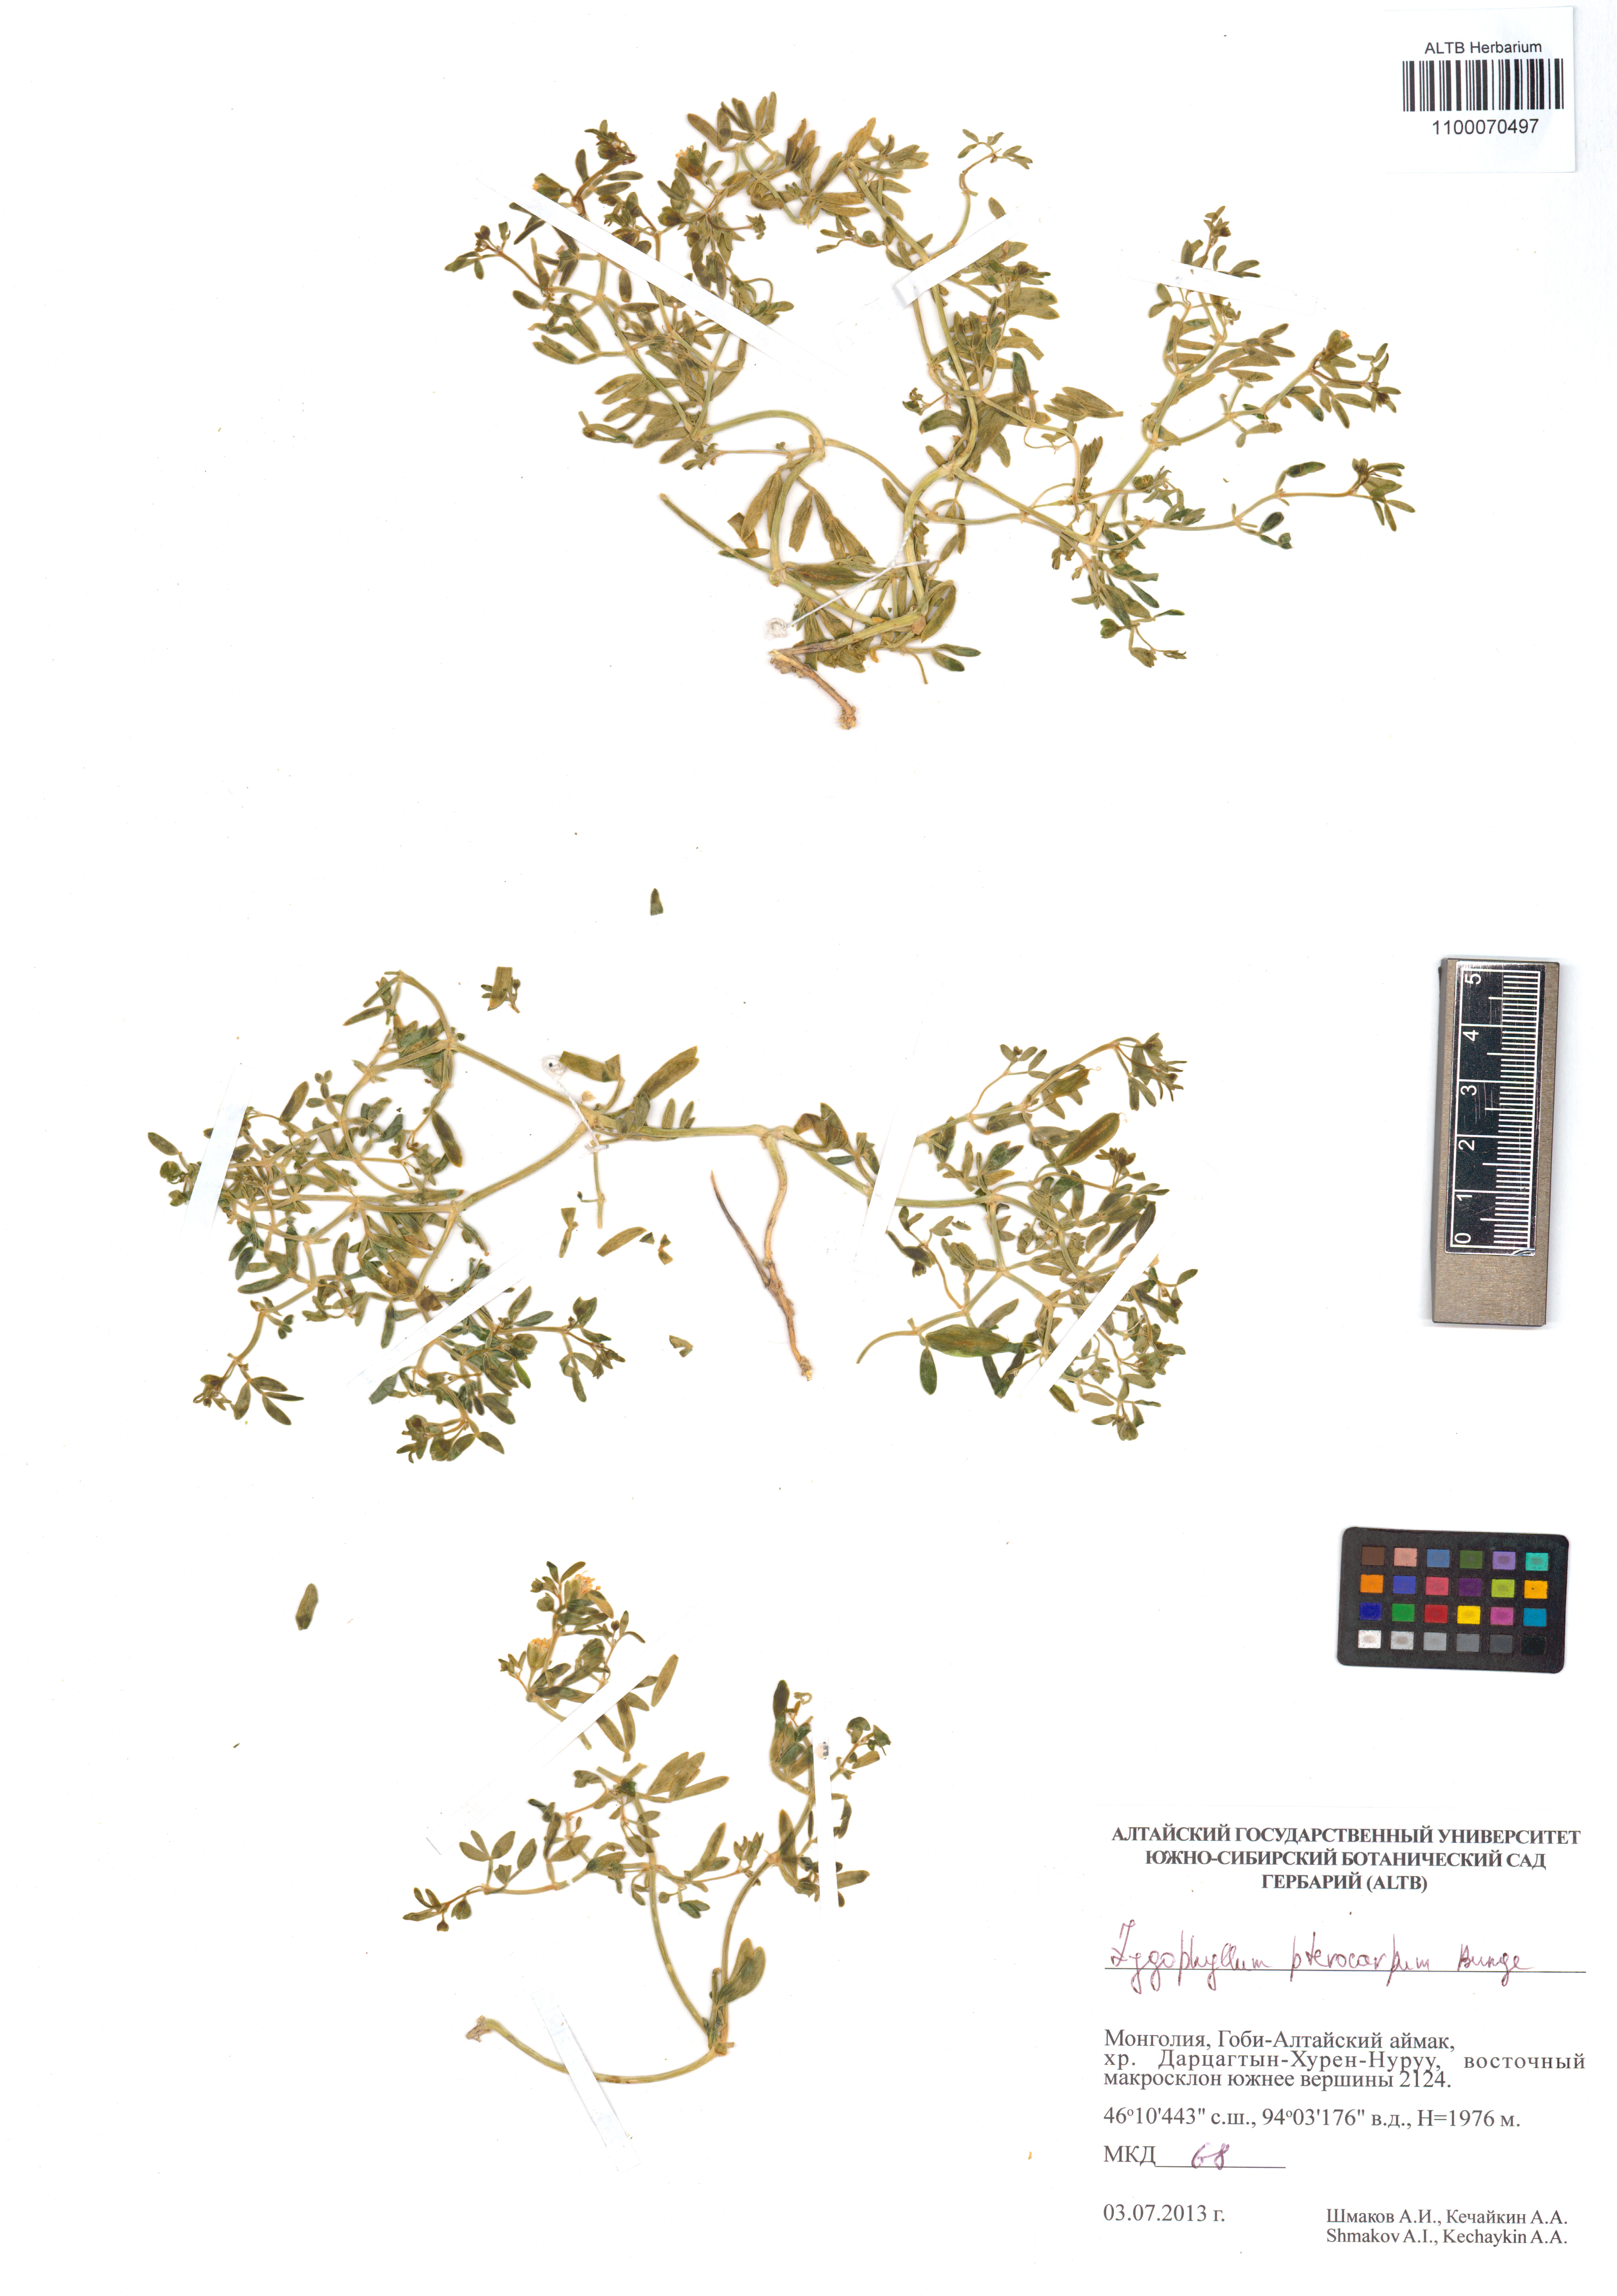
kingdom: Plantae
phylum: Tracheophyta
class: Magnoliopsida
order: Zygophyllales
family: Zygophyllaceae
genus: Zygophyllum
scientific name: Zygophyllum pterocarpum
